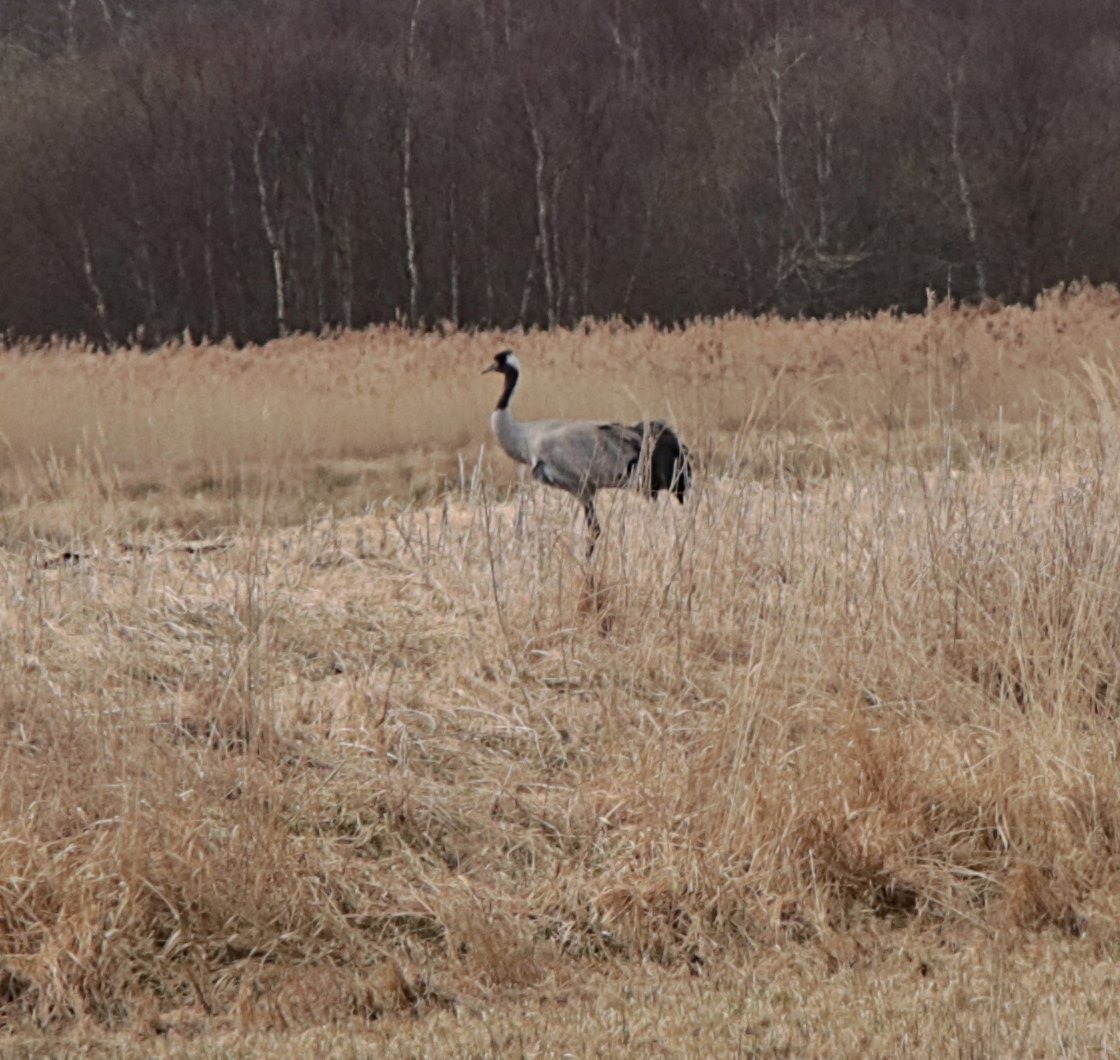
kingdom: Animalia
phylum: Chordata
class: Aves
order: Gruiformes
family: Gruidae
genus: Grus
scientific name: Grus grus
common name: Trane
